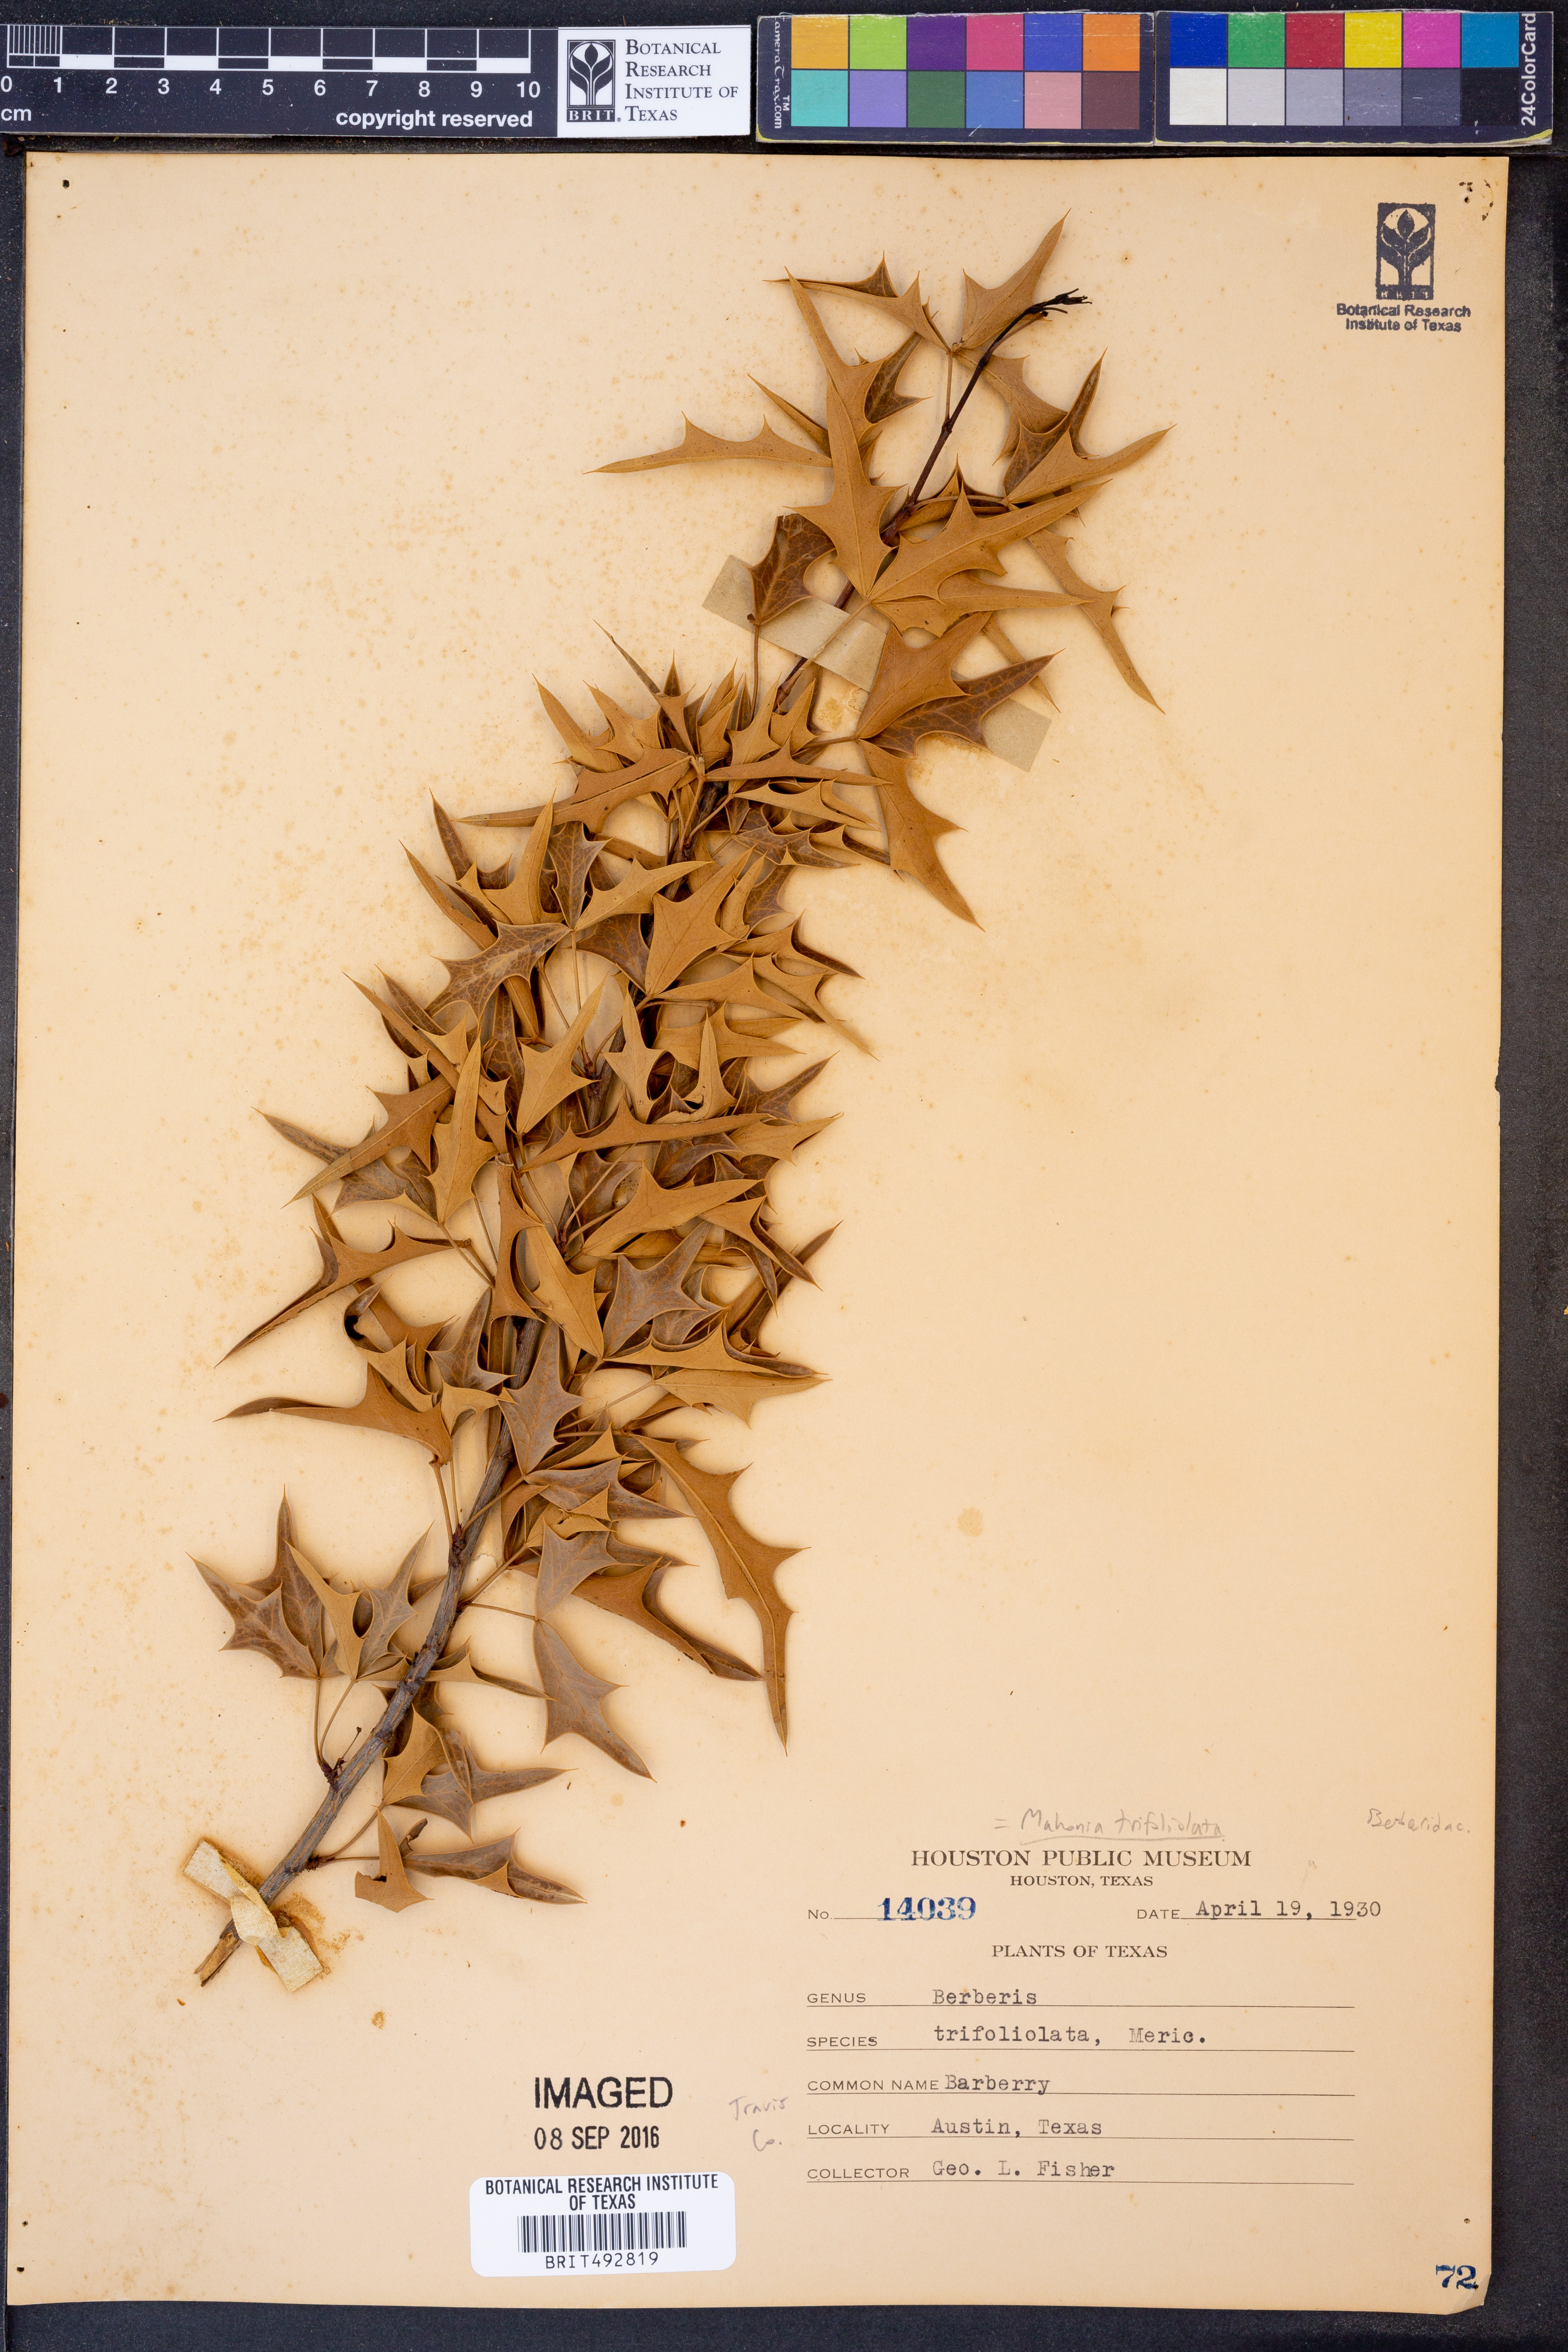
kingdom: Plantae
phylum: Tracheophyta
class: Magnoliopsida
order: Ranunculales
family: Berberidaceae
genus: Alloberberis
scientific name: Alloberberis trifoliolata
